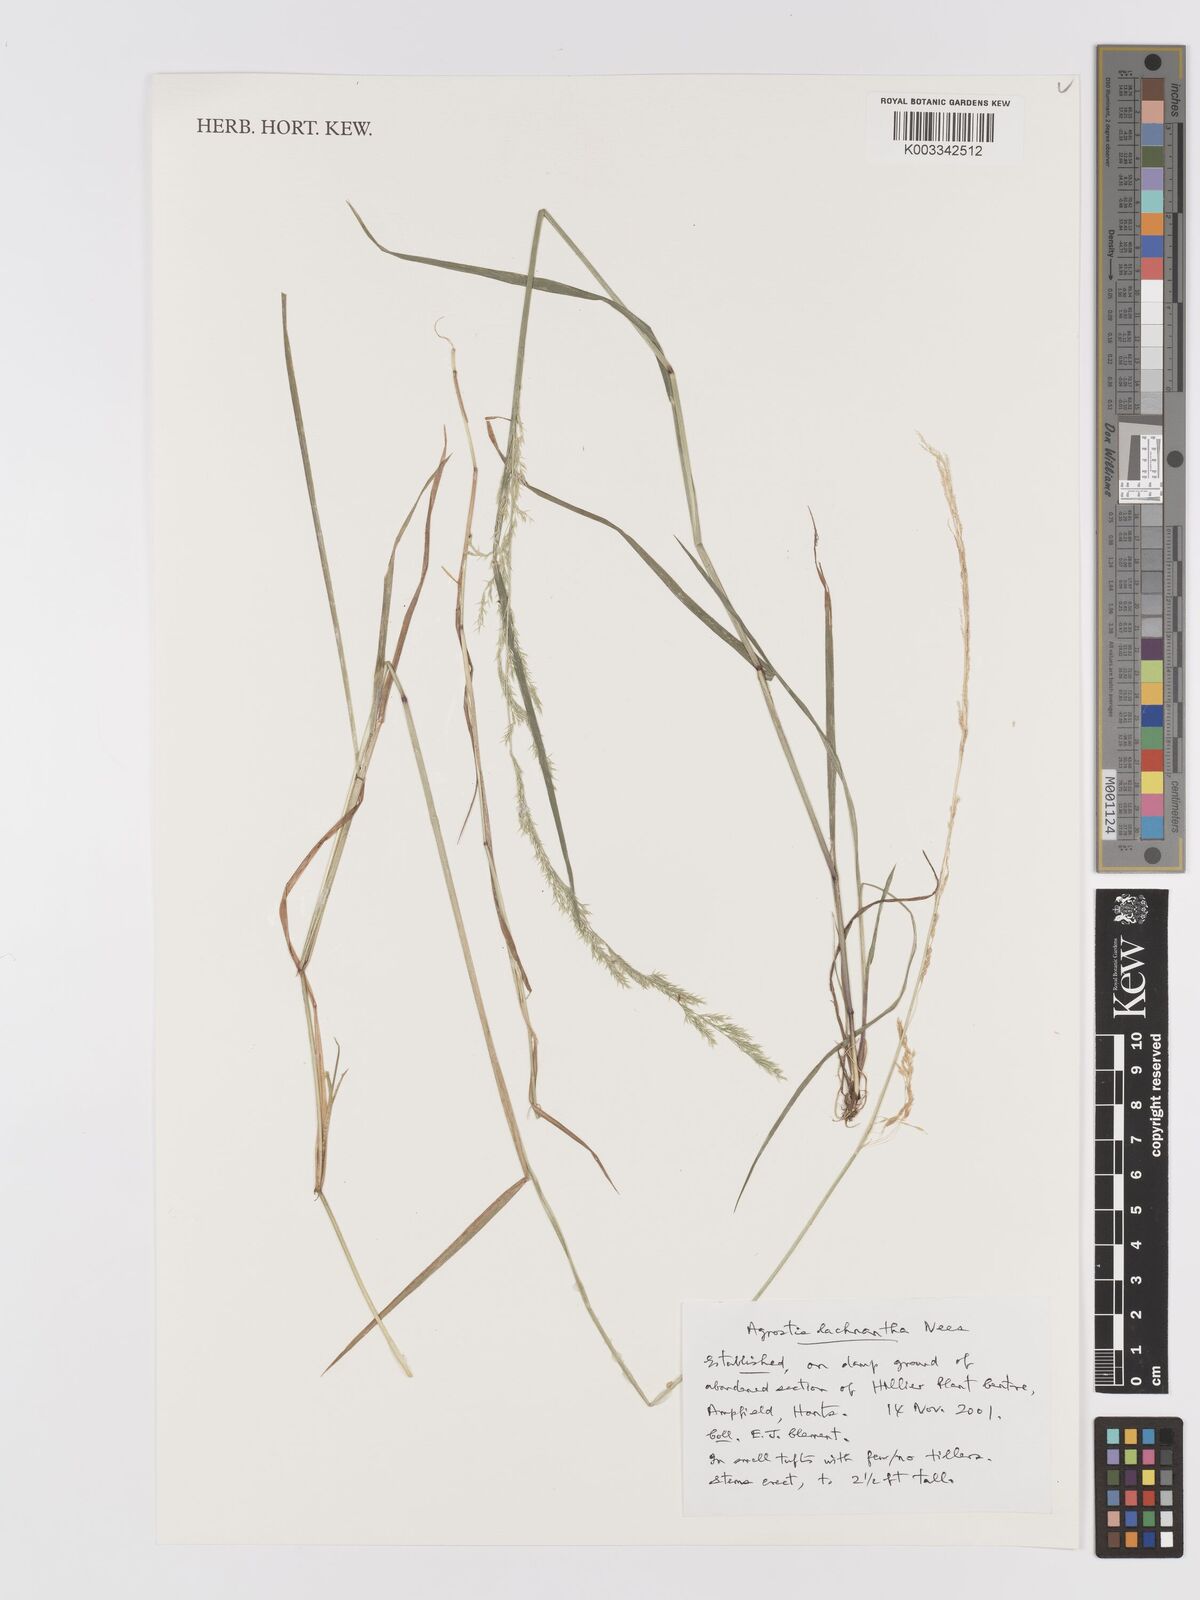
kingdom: Plantae
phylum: Tracheophyta
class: Liliopsida
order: Poales
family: Poaceae
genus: Lachnagrostis
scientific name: Lachnagrostis lachnantha
